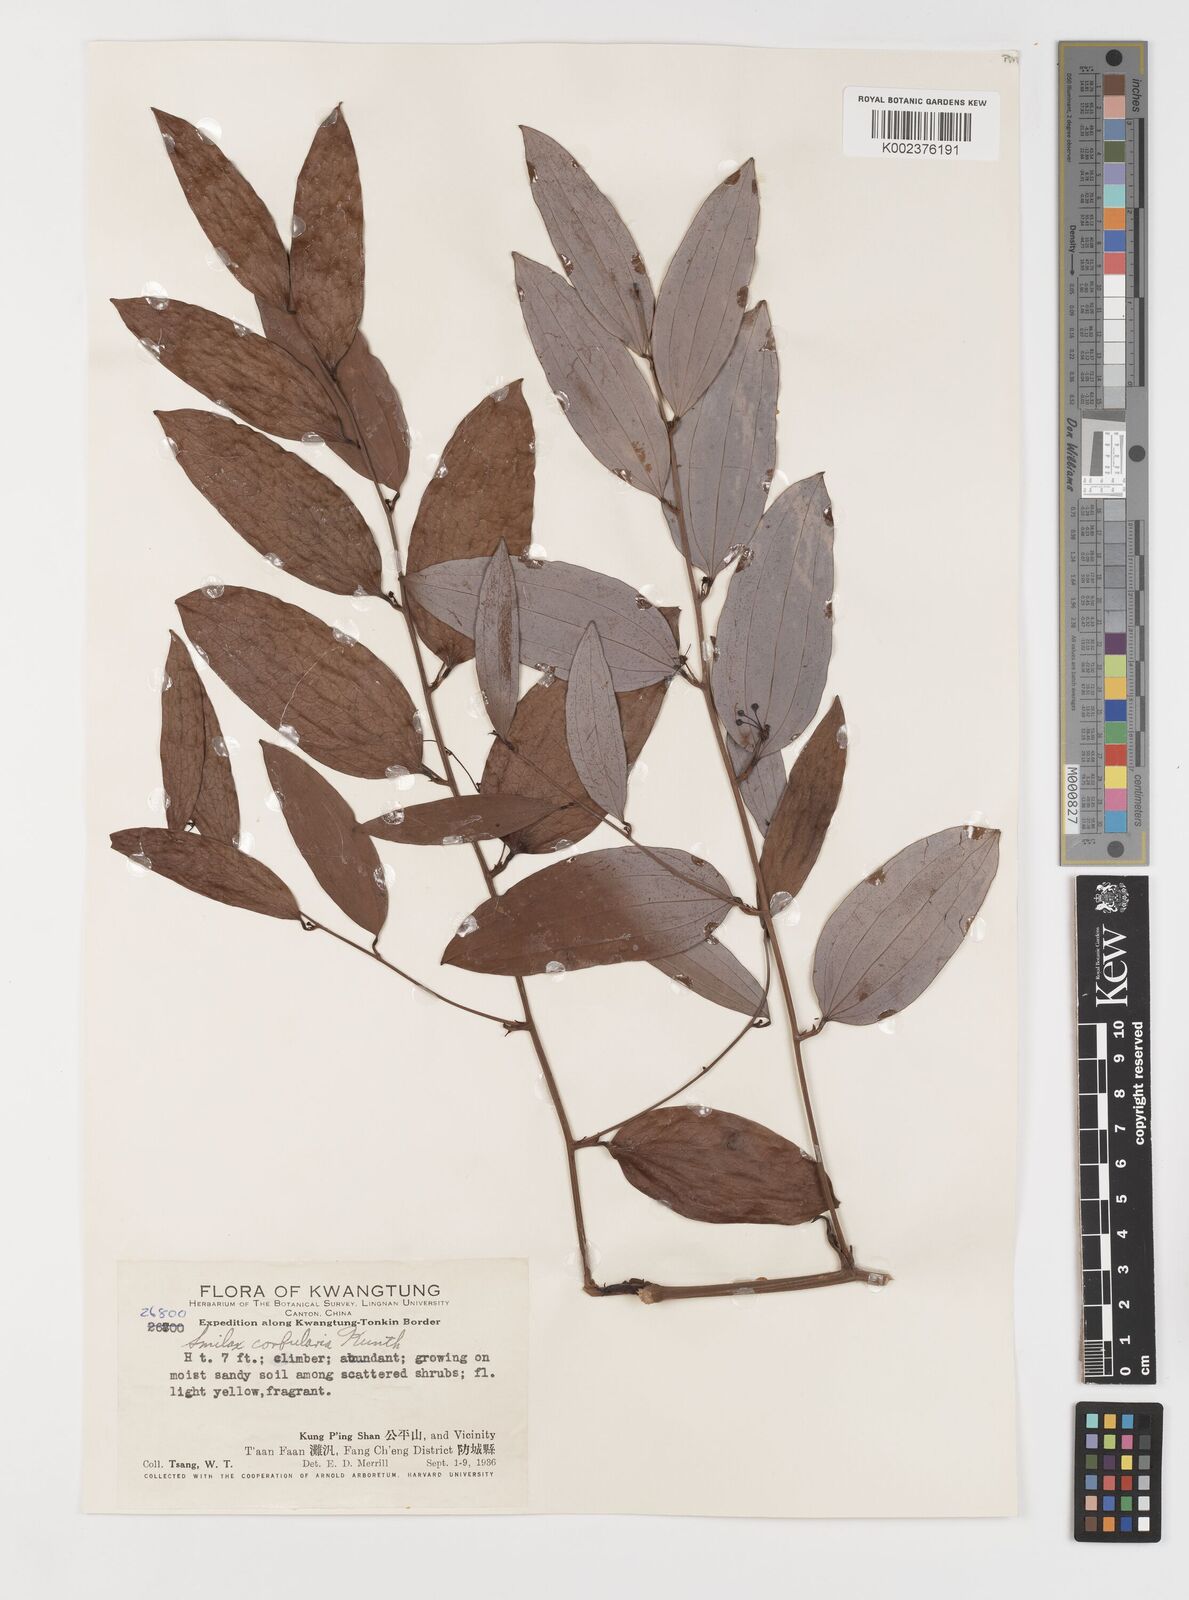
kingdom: Plantae
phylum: Tracheophyta
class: Liliopsida
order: Liliales
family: Smilacaceae
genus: Smilax
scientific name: Smilax corbularia
